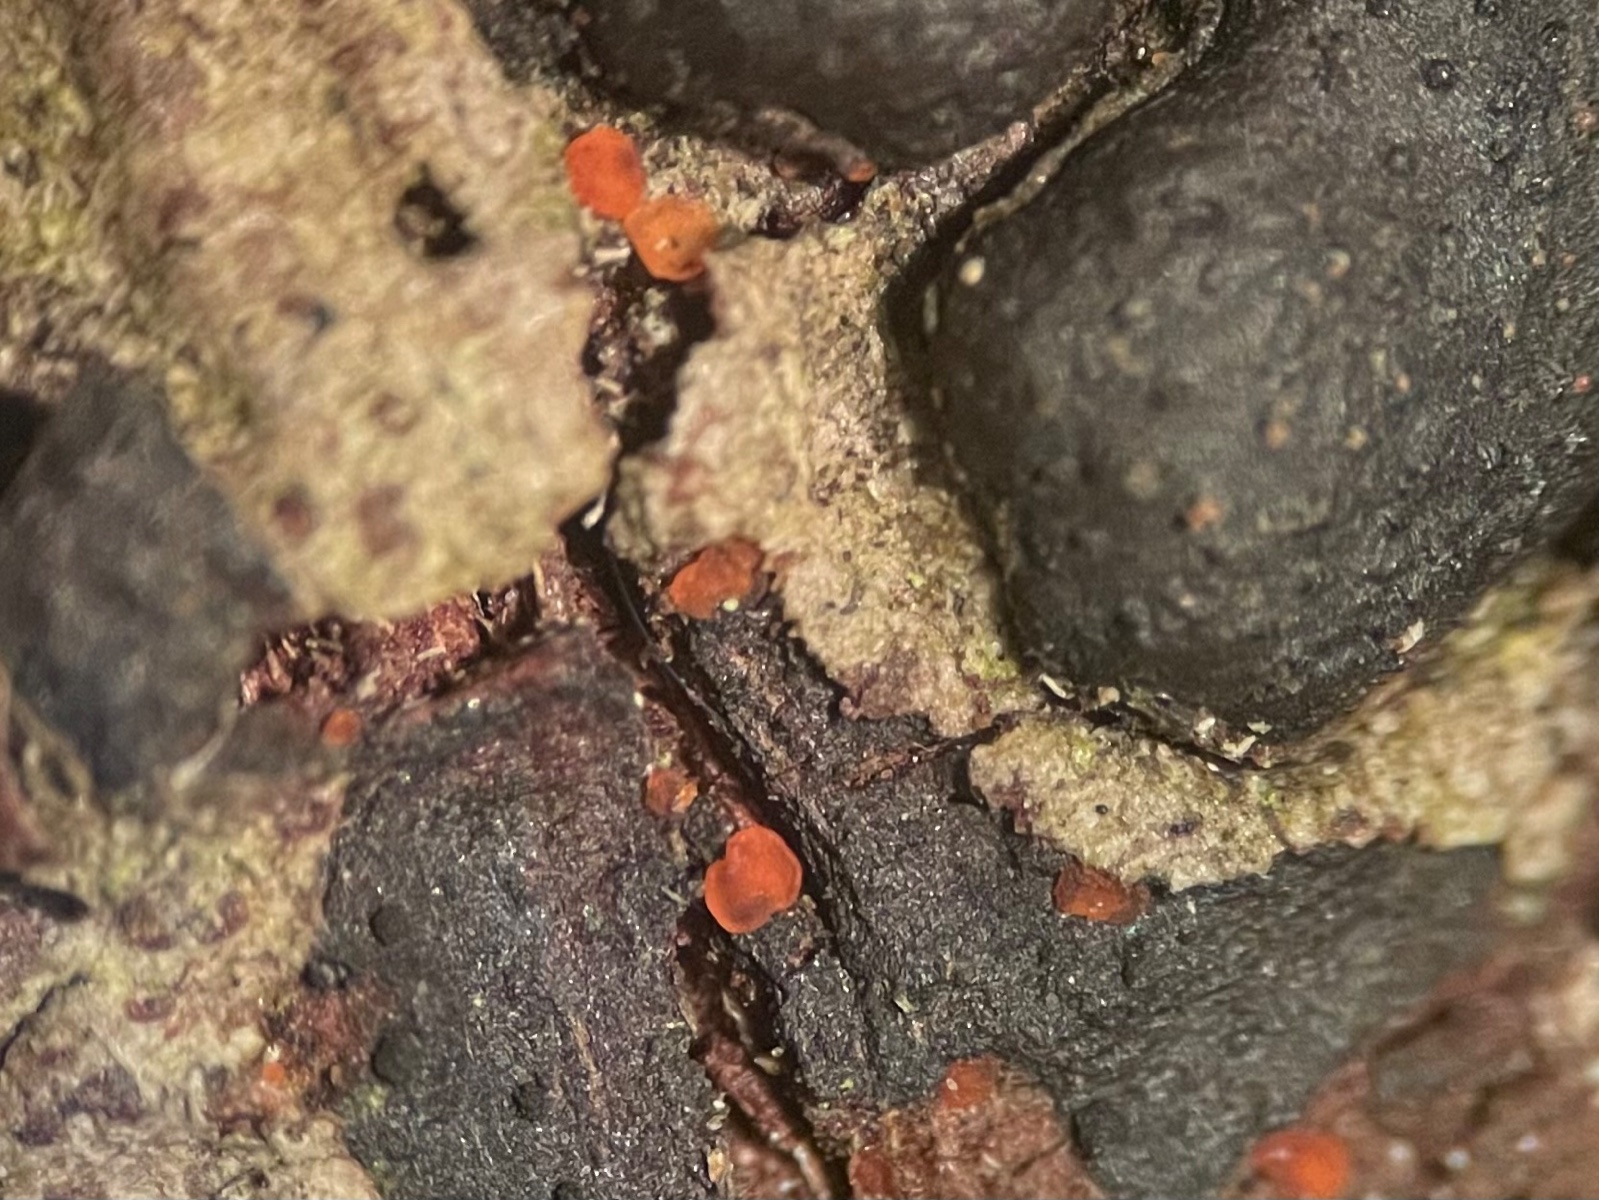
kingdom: Fungi
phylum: Ascomycota
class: Orbiliomycetes
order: Orbiliales
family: Orbiliaceae
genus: Orbilia
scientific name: Orbilia
